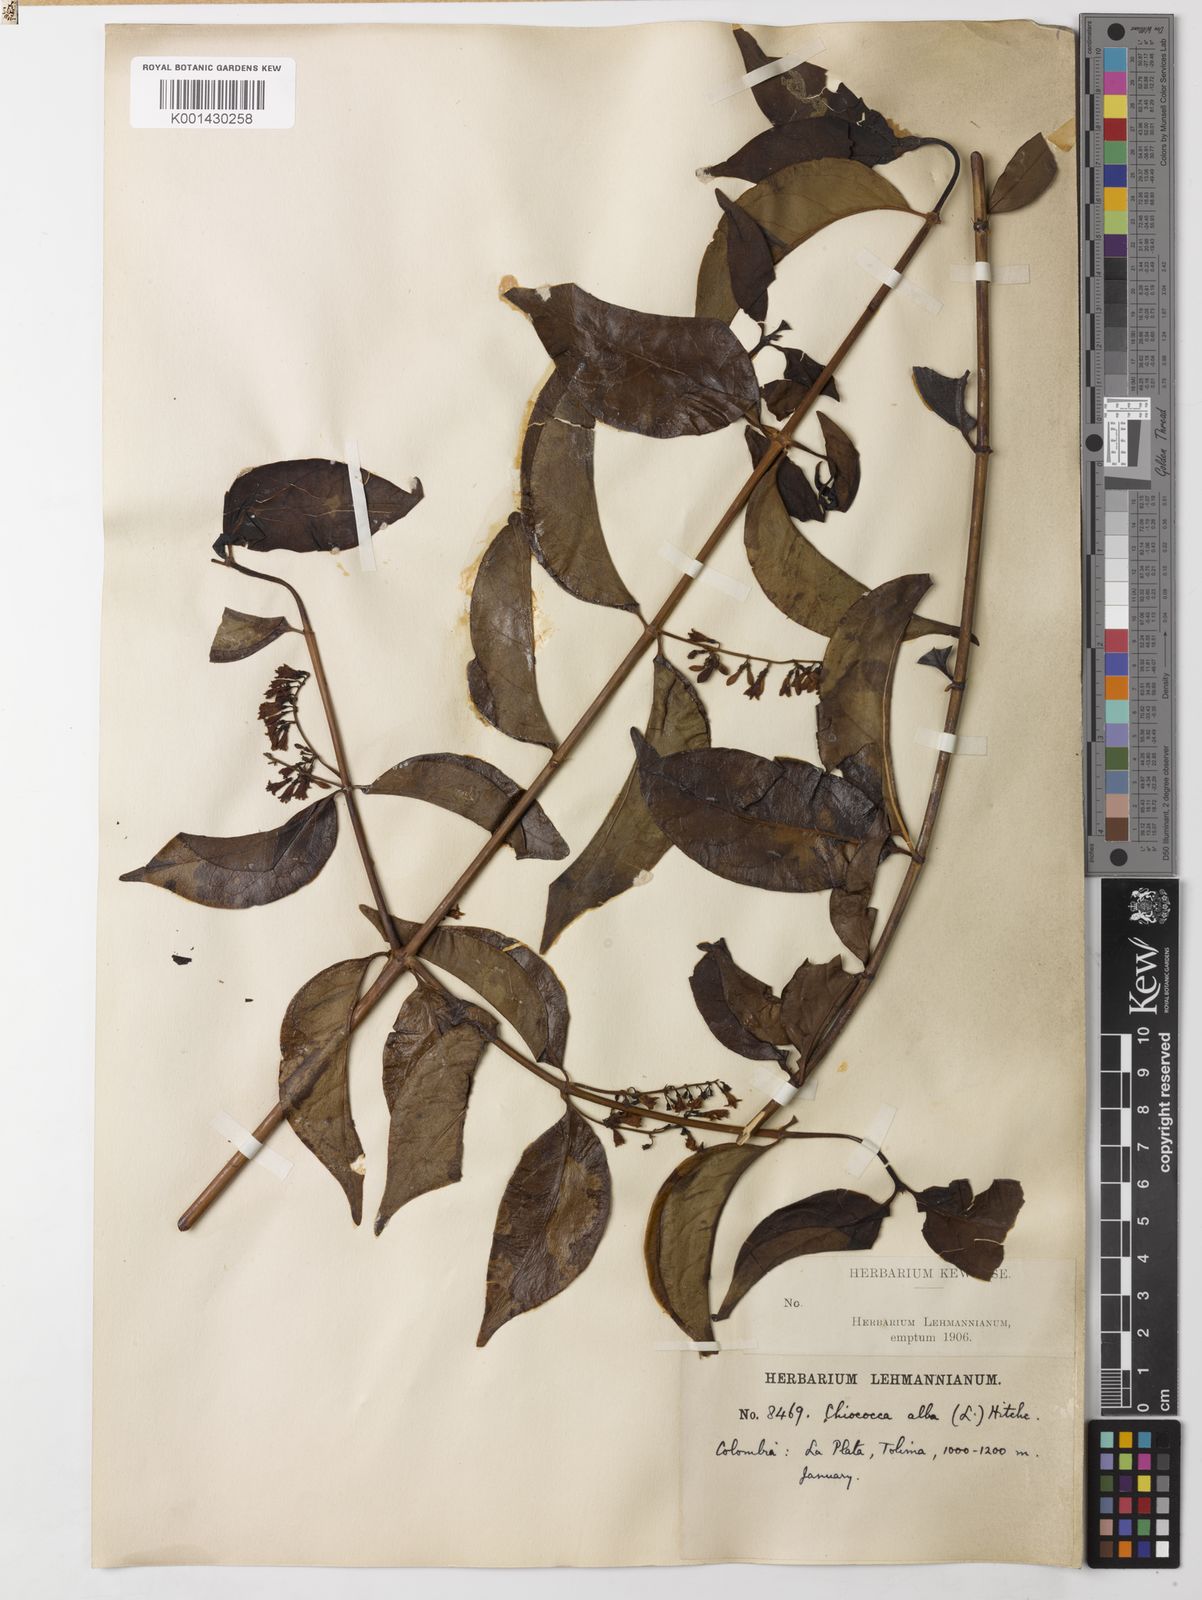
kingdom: Plantae
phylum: Tracheophyta
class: Magnoliopsida
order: Gentianales
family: Rubiaceae
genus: Chiococca
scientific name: Chiococca alba
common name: Snowberry
